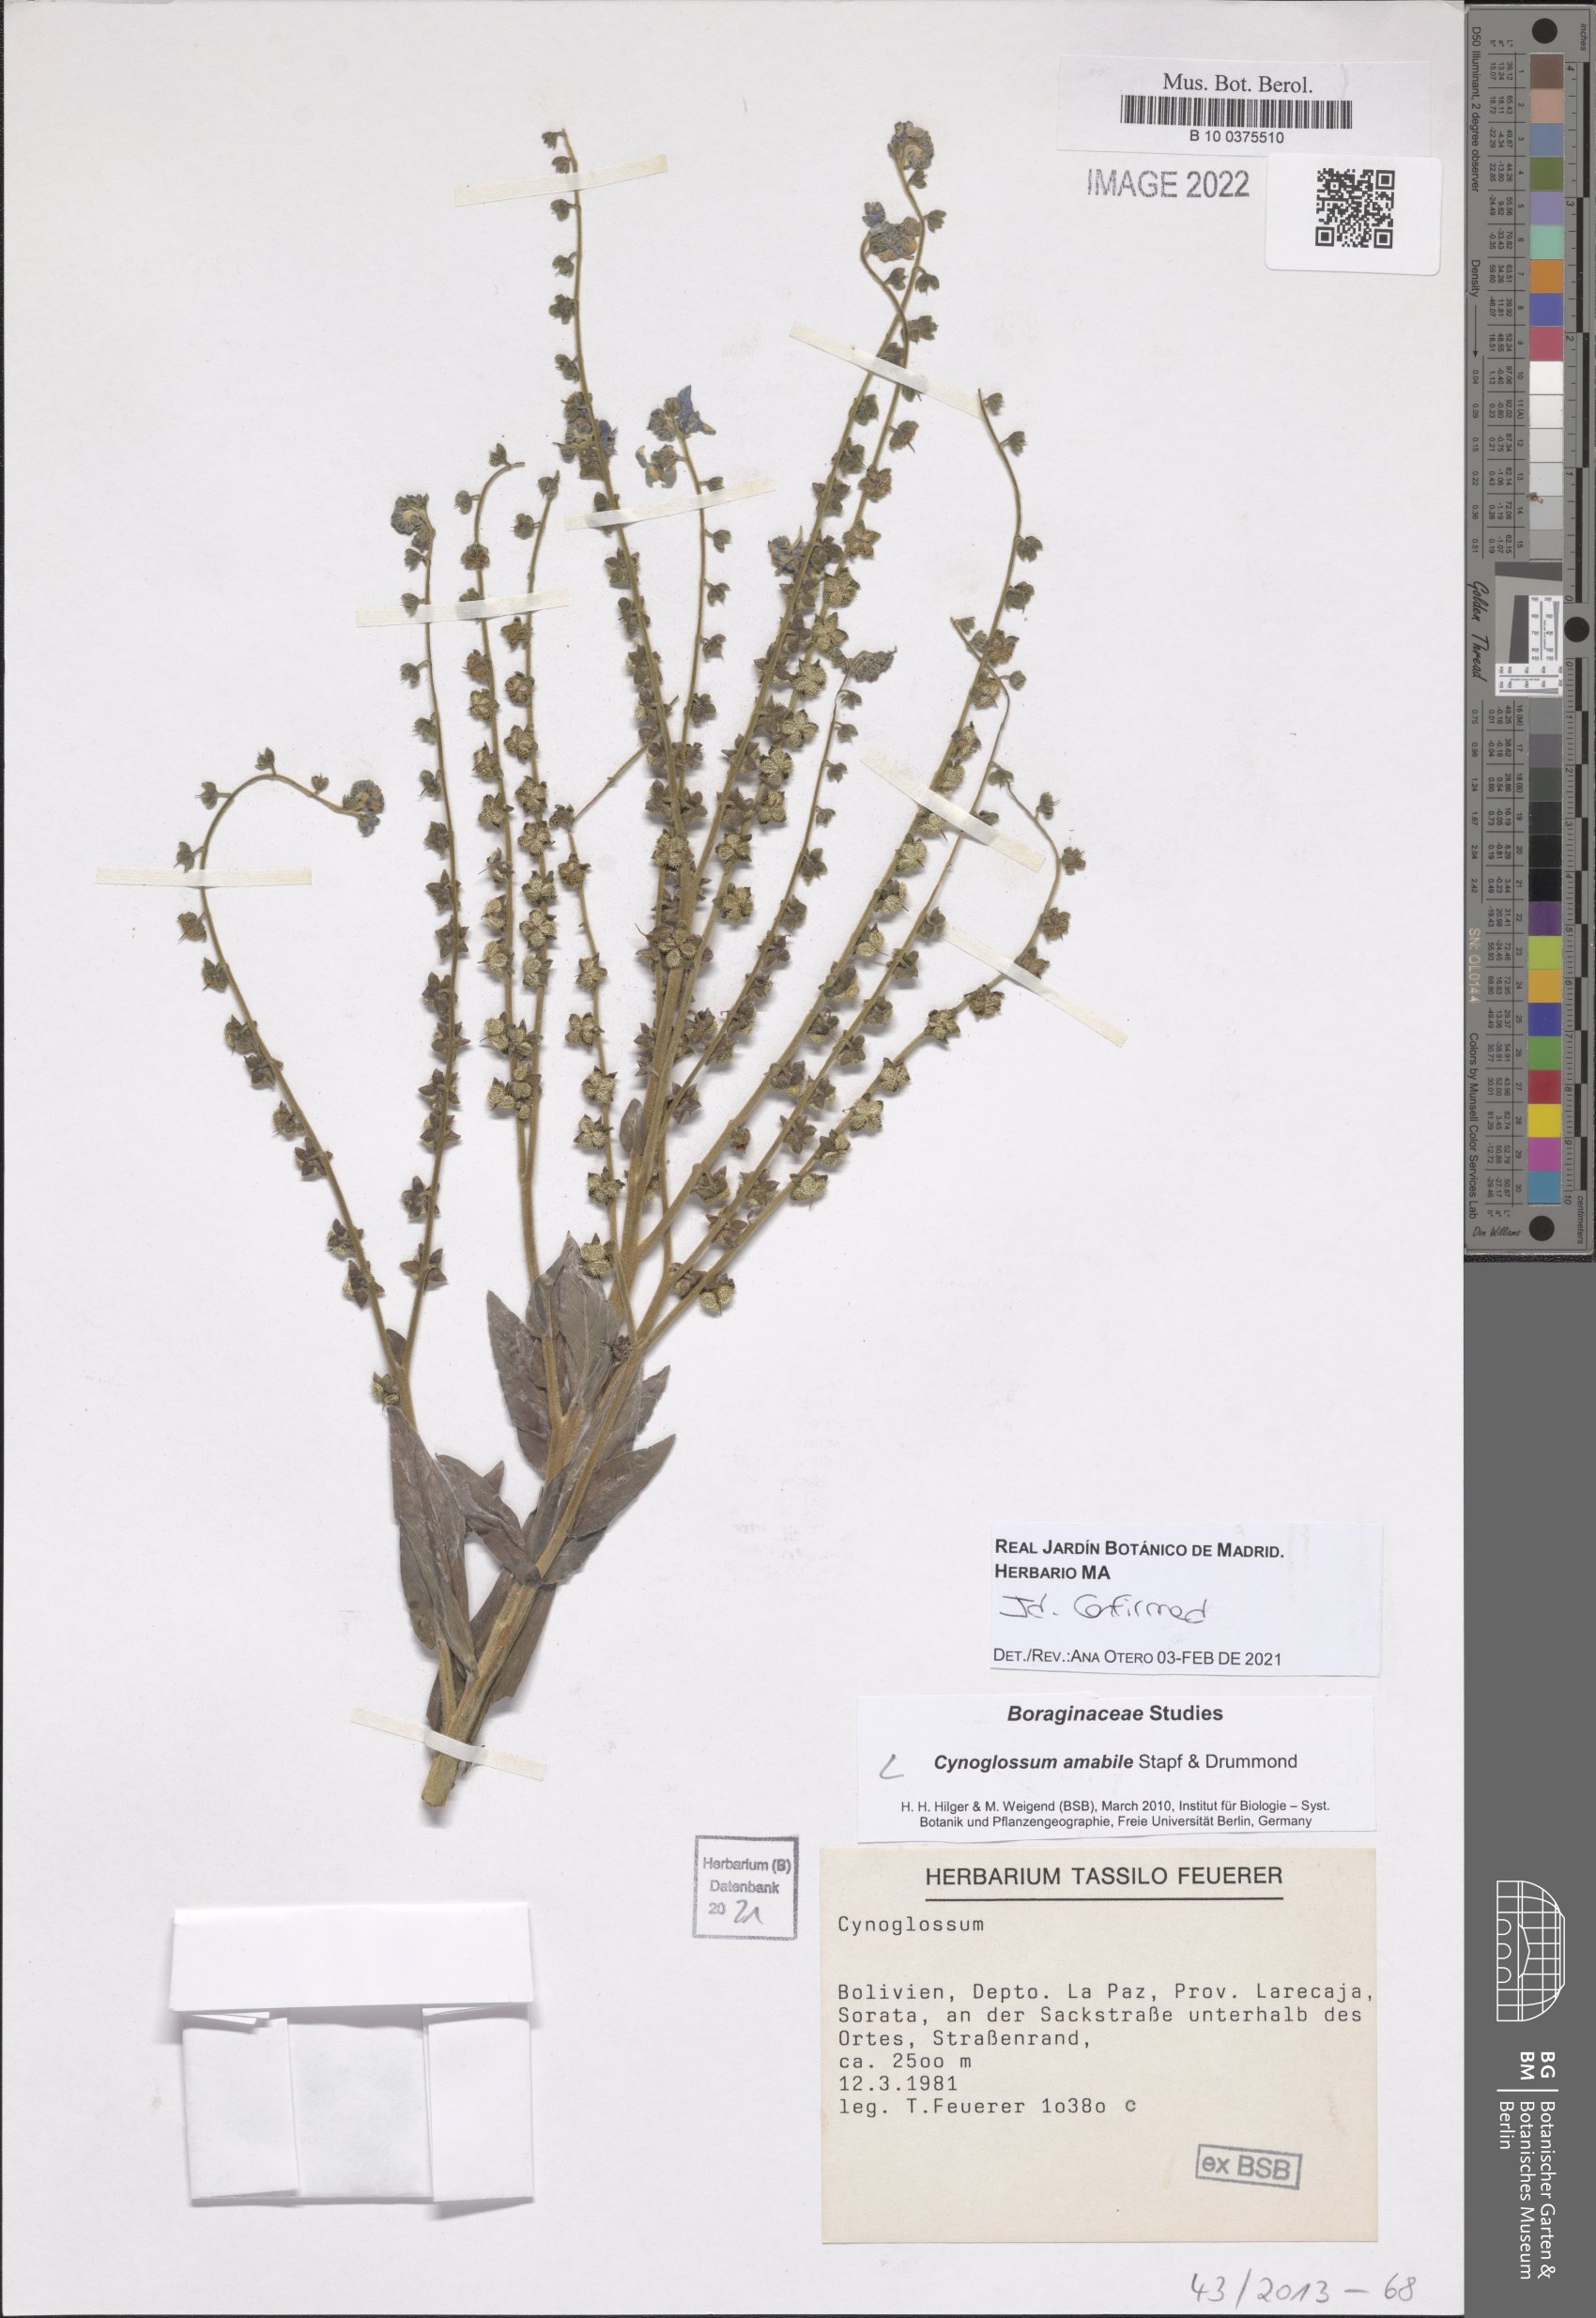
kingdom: Plantae
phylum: Tracheophyta
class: Magnoliopsida
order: Boraginales
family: Boraginaceae
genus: Cynoglossum
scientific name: Cynoglossum amabile
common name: Chinese hound's tongue
